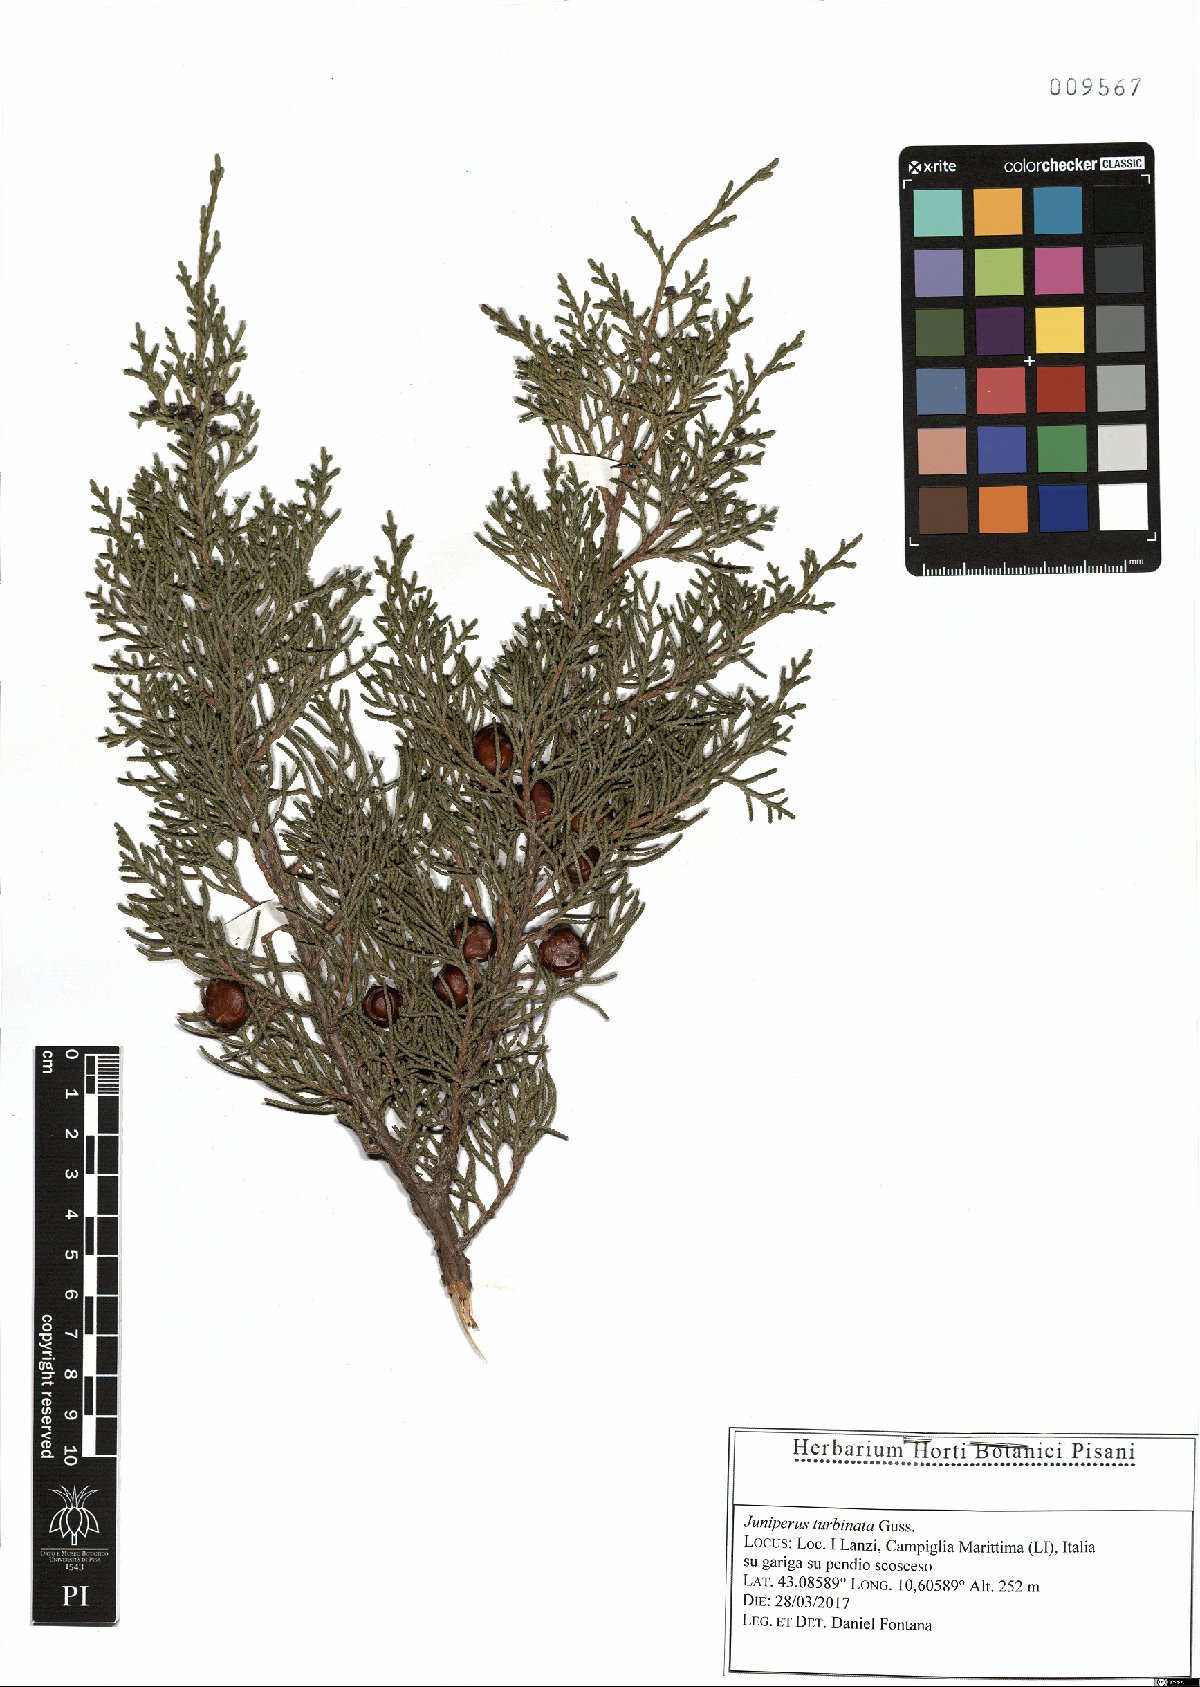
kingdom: Plantae
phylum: Tracheophyta
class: Pinopsida
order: Pinales
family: Cupressaceae
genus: Juniperus
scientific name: Juniperus phoenicea
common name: Phoenician juniper
